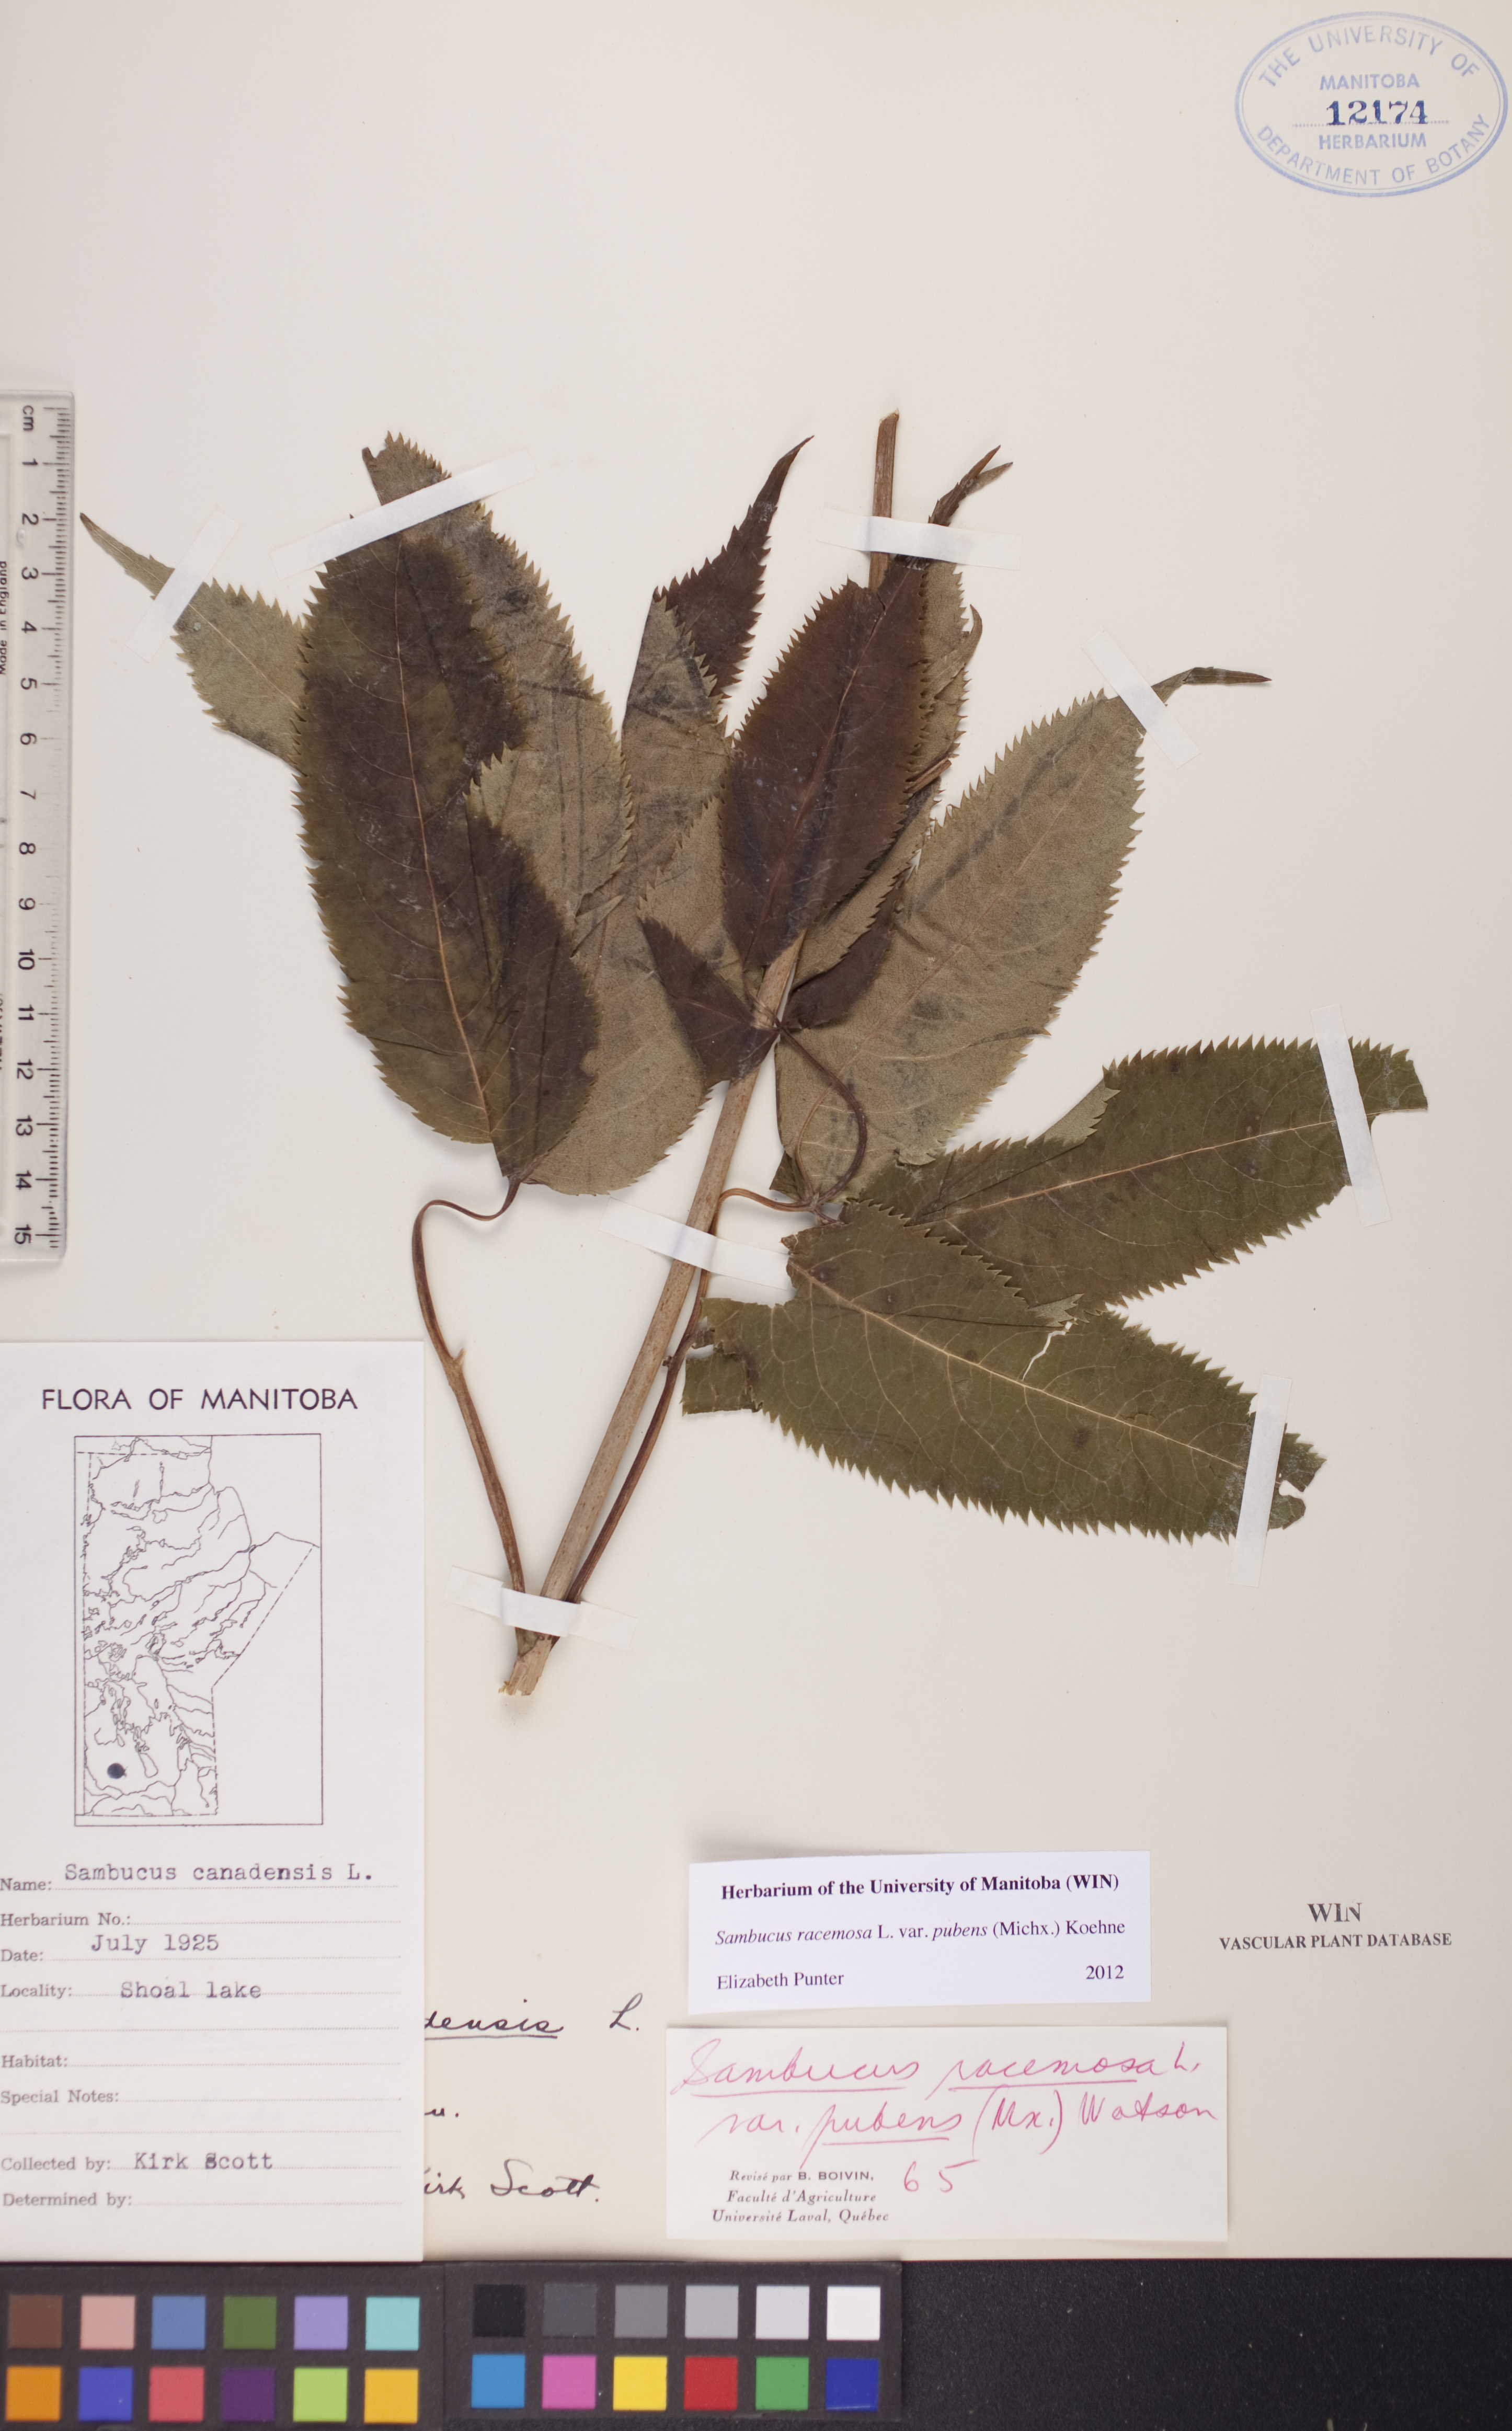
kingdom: Plantae
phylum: Tracheophyta
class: Magnoliopsida
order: Dipsacales
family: Viburnaceae
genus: Sambucus
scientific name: Sambucus racemosa
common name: Red-berried elder
